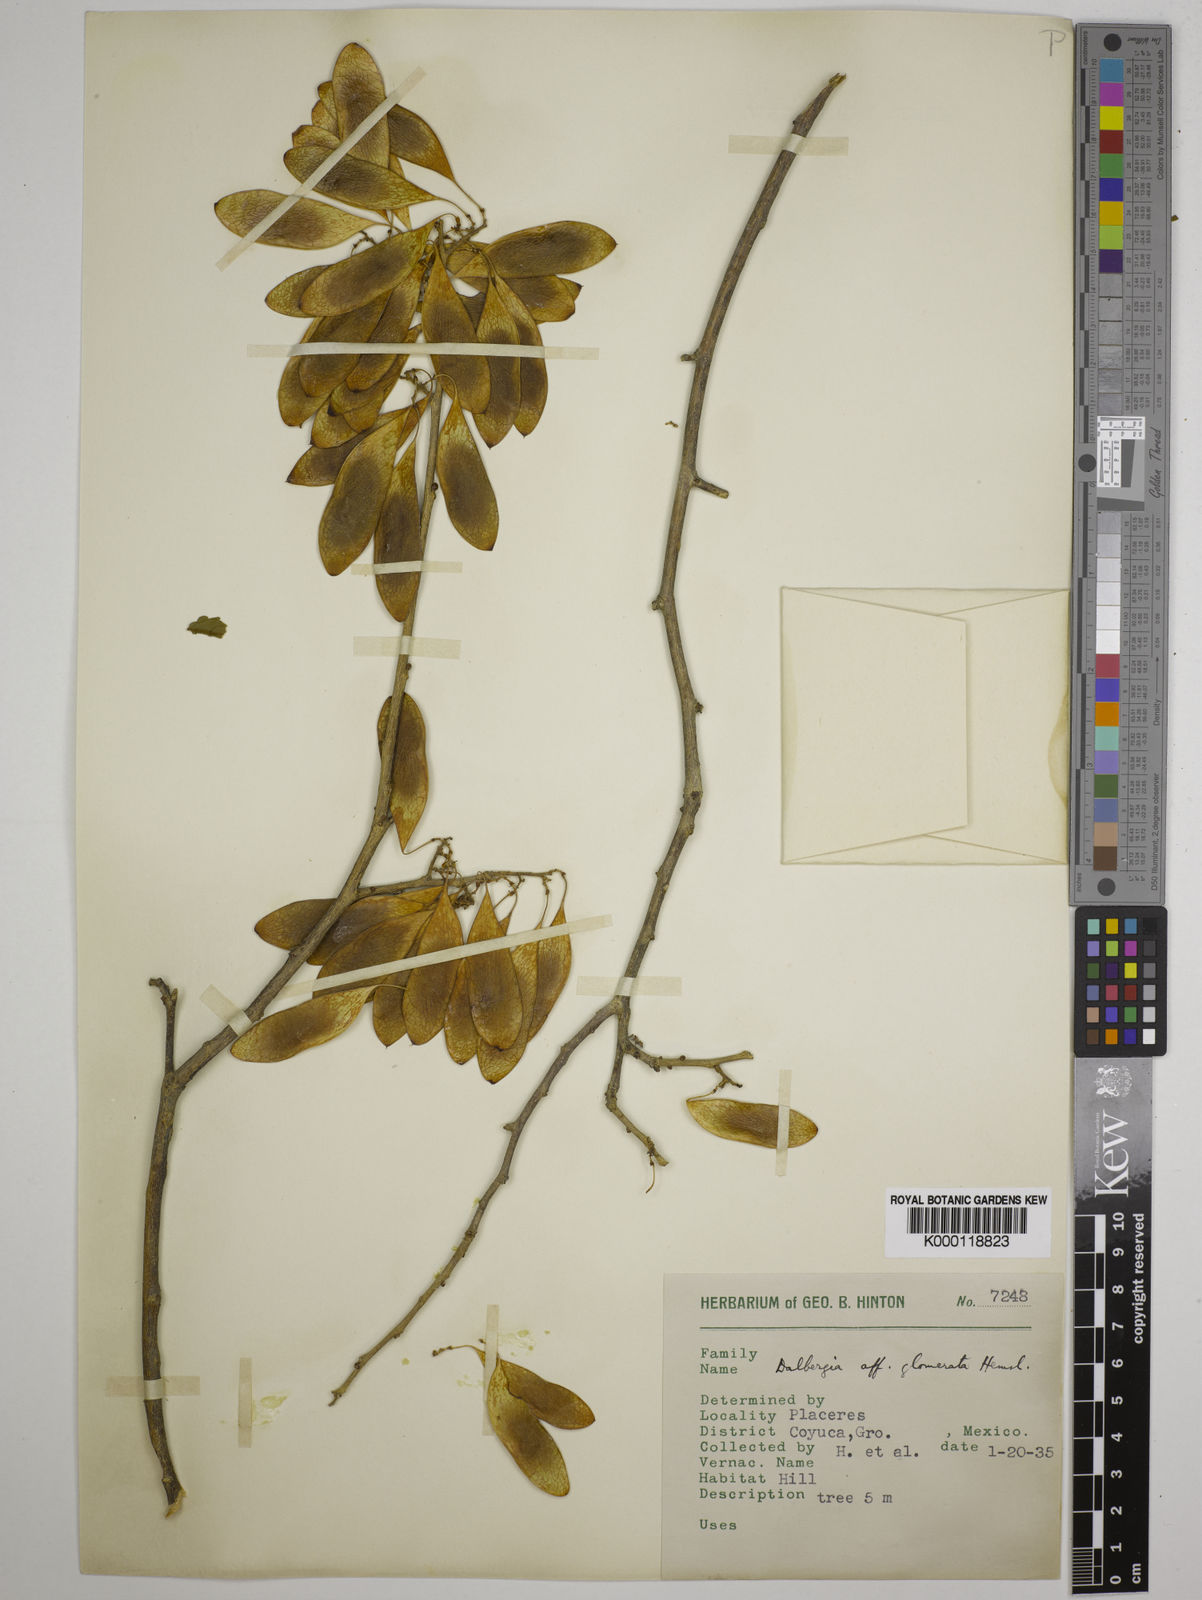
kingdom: Plantae
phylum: Tracheophyta
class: Magnoliopsida
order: Fabales
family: Fabaceae
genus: Dalbergia
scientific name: Dalbergia glomerata
